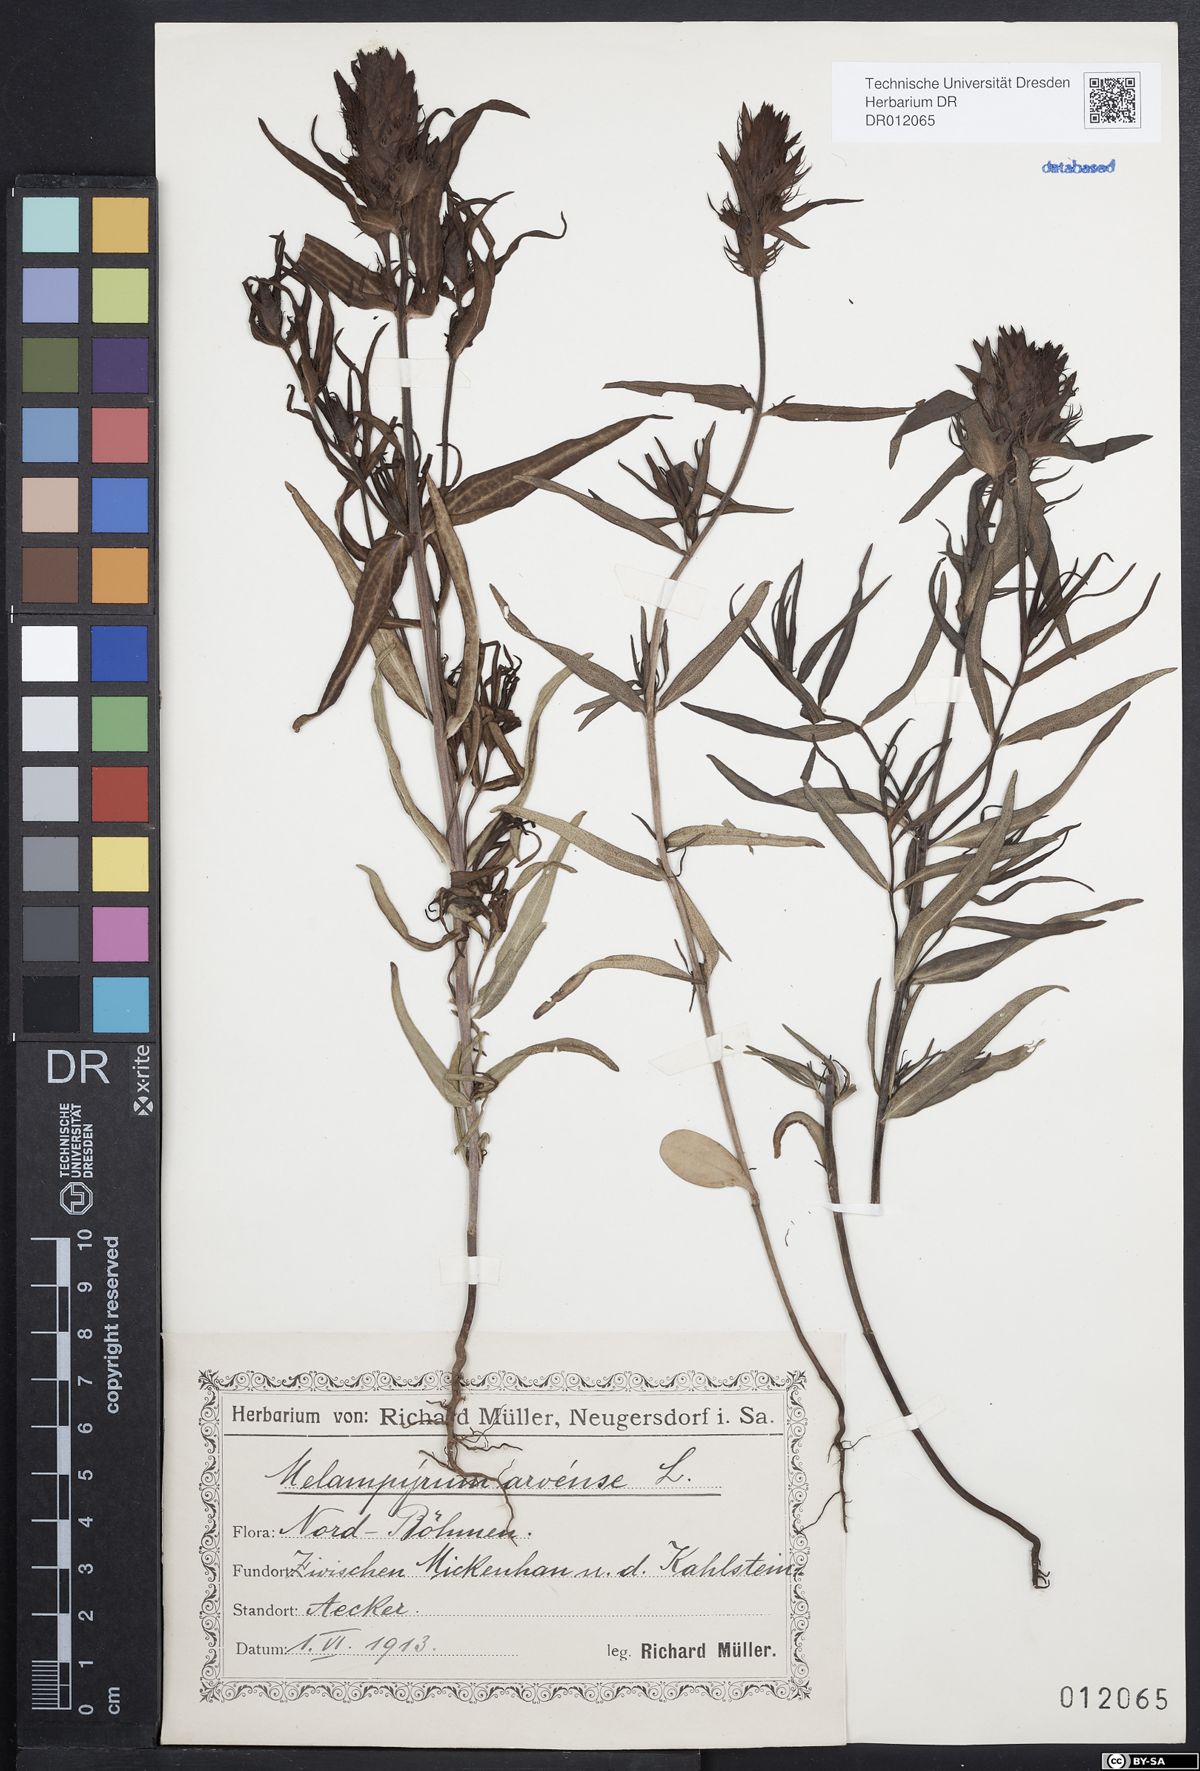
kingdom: Plantae
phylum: Tracheophyta
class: Magnoliopsida
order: Lamiales
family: Orobanchaceae
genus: Melampyrum
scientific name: Melampyrum arvense
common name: Field cow-wheat
